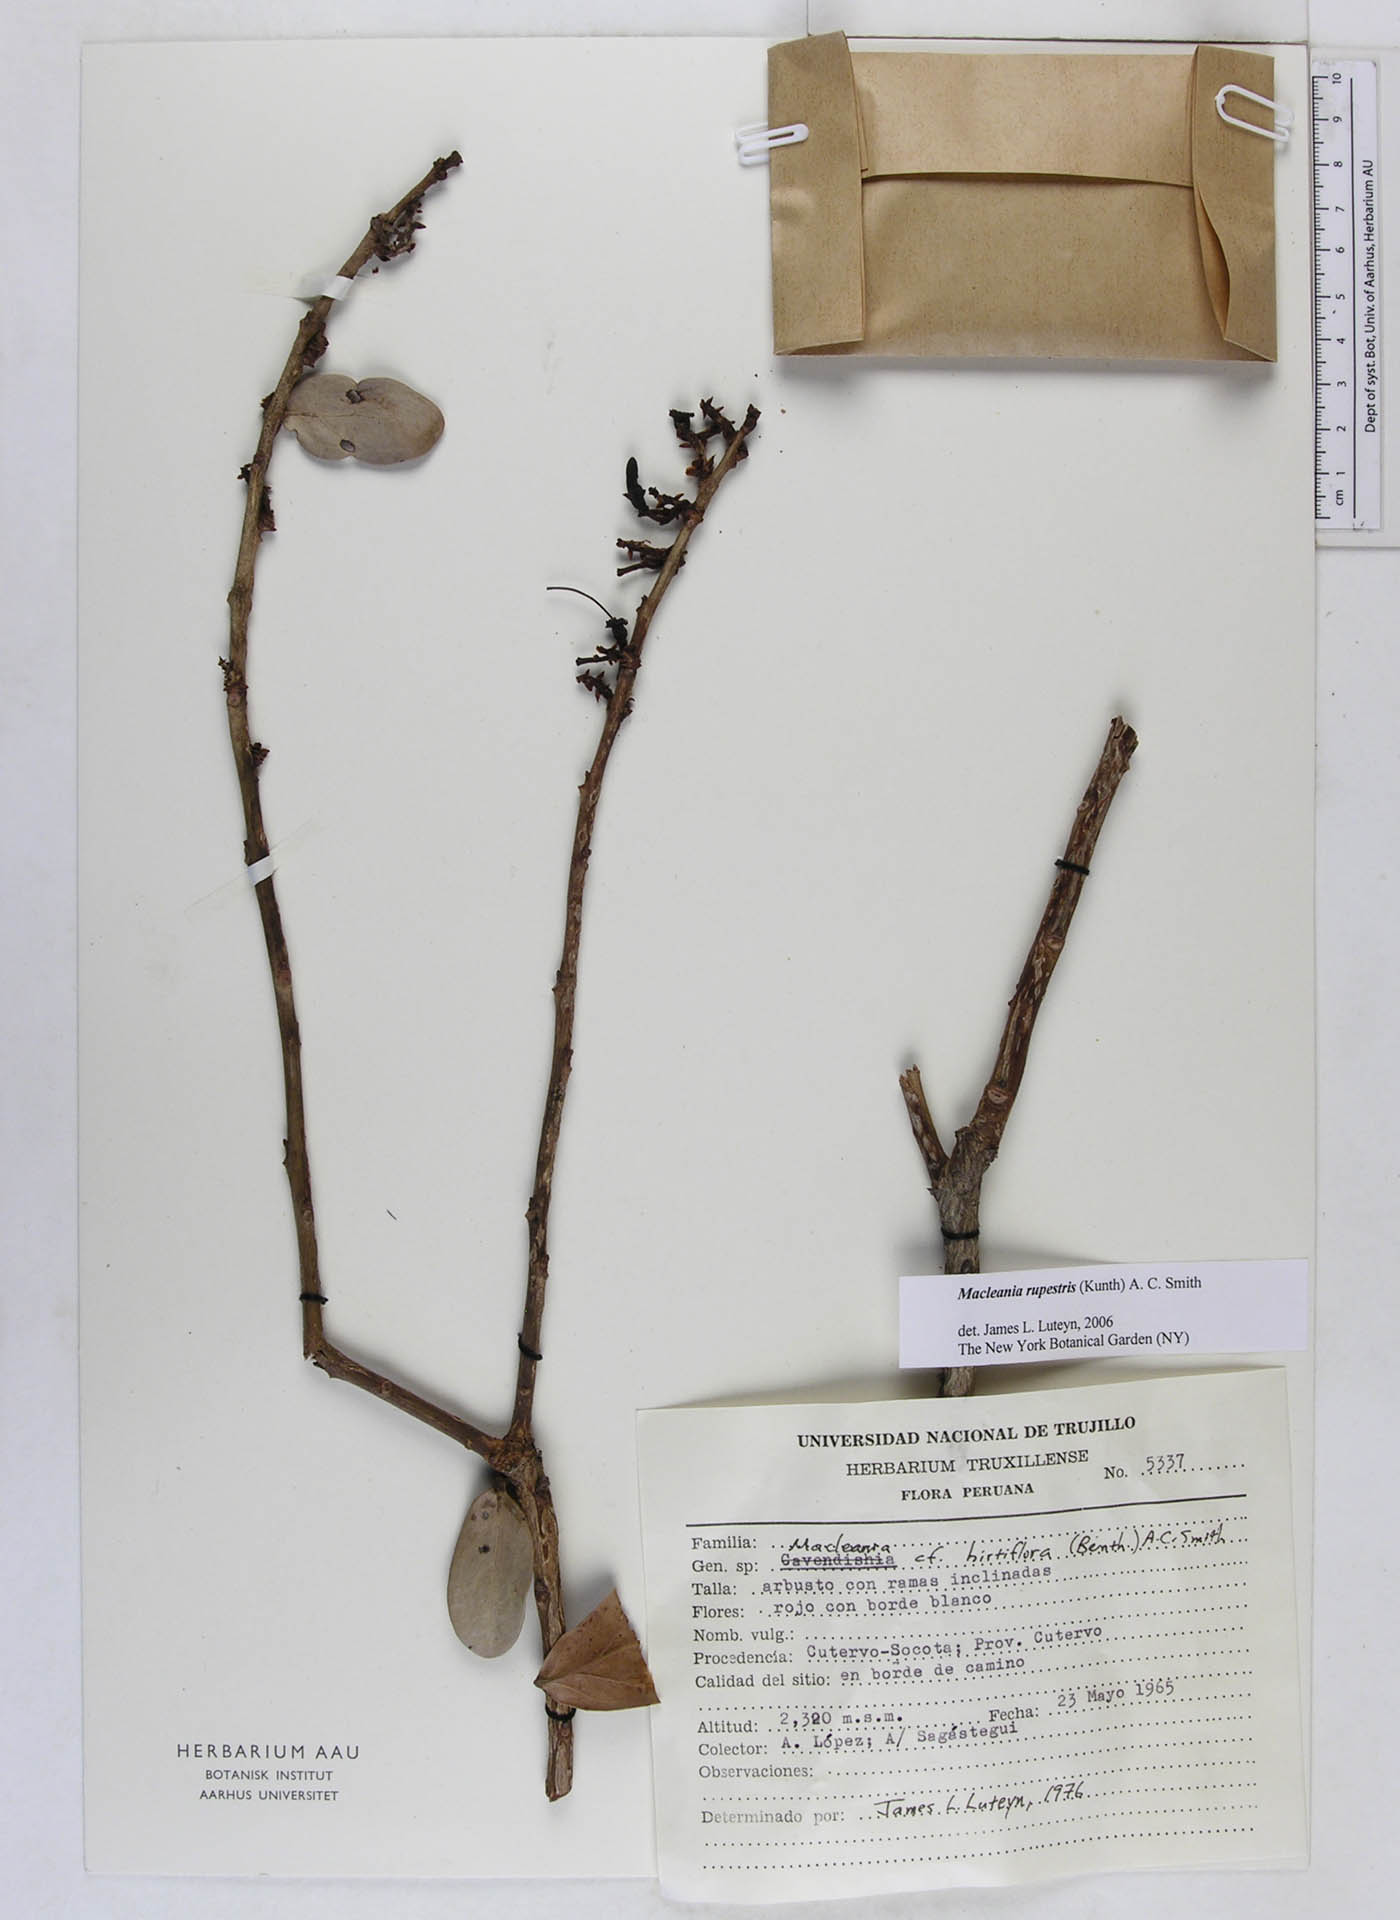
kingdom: Plantae
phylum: Tracheophyta
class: Magnoliopsida
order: Ericales
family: Ericaceae
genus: Macleania
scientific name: Macleania rupestris
